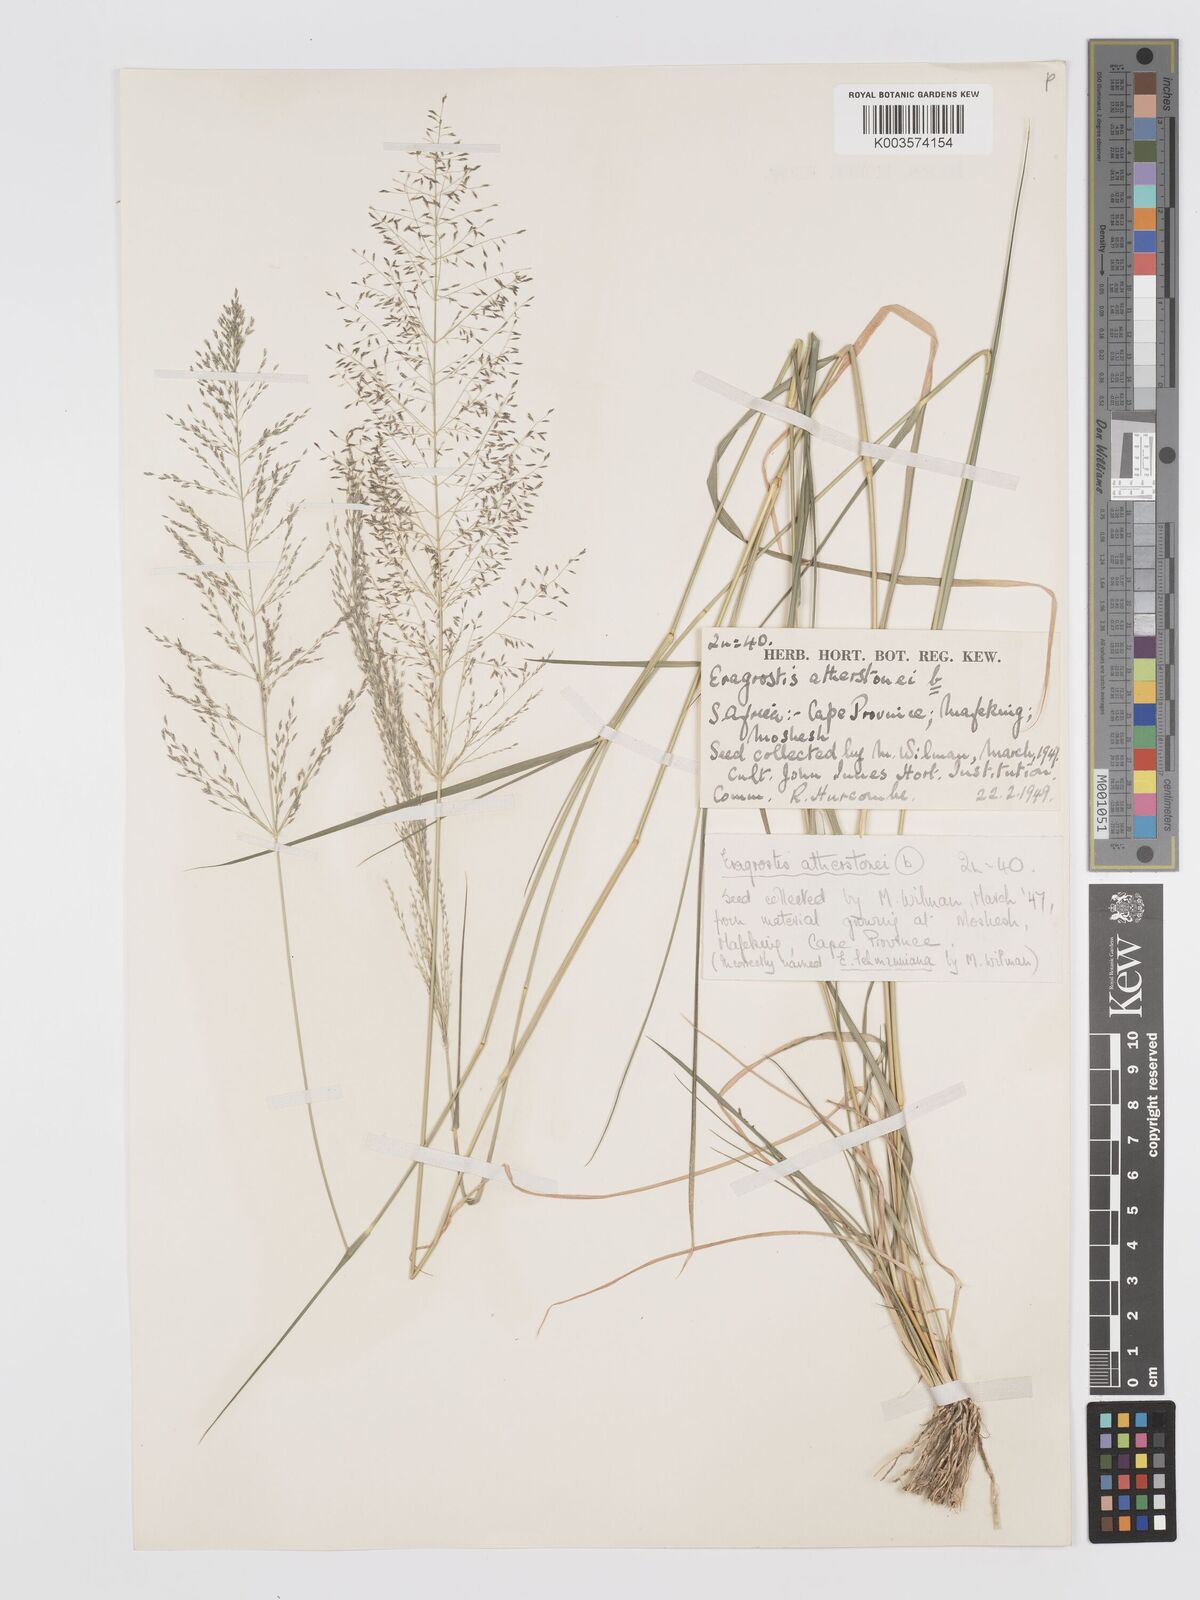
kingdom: Plantae
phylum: Tracheophyta
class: Liliopsida
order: Poales
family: Poaceae
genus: Eragrostis
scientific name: Eragrostis cylindriflora
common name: Cylinderflower lovegrass
